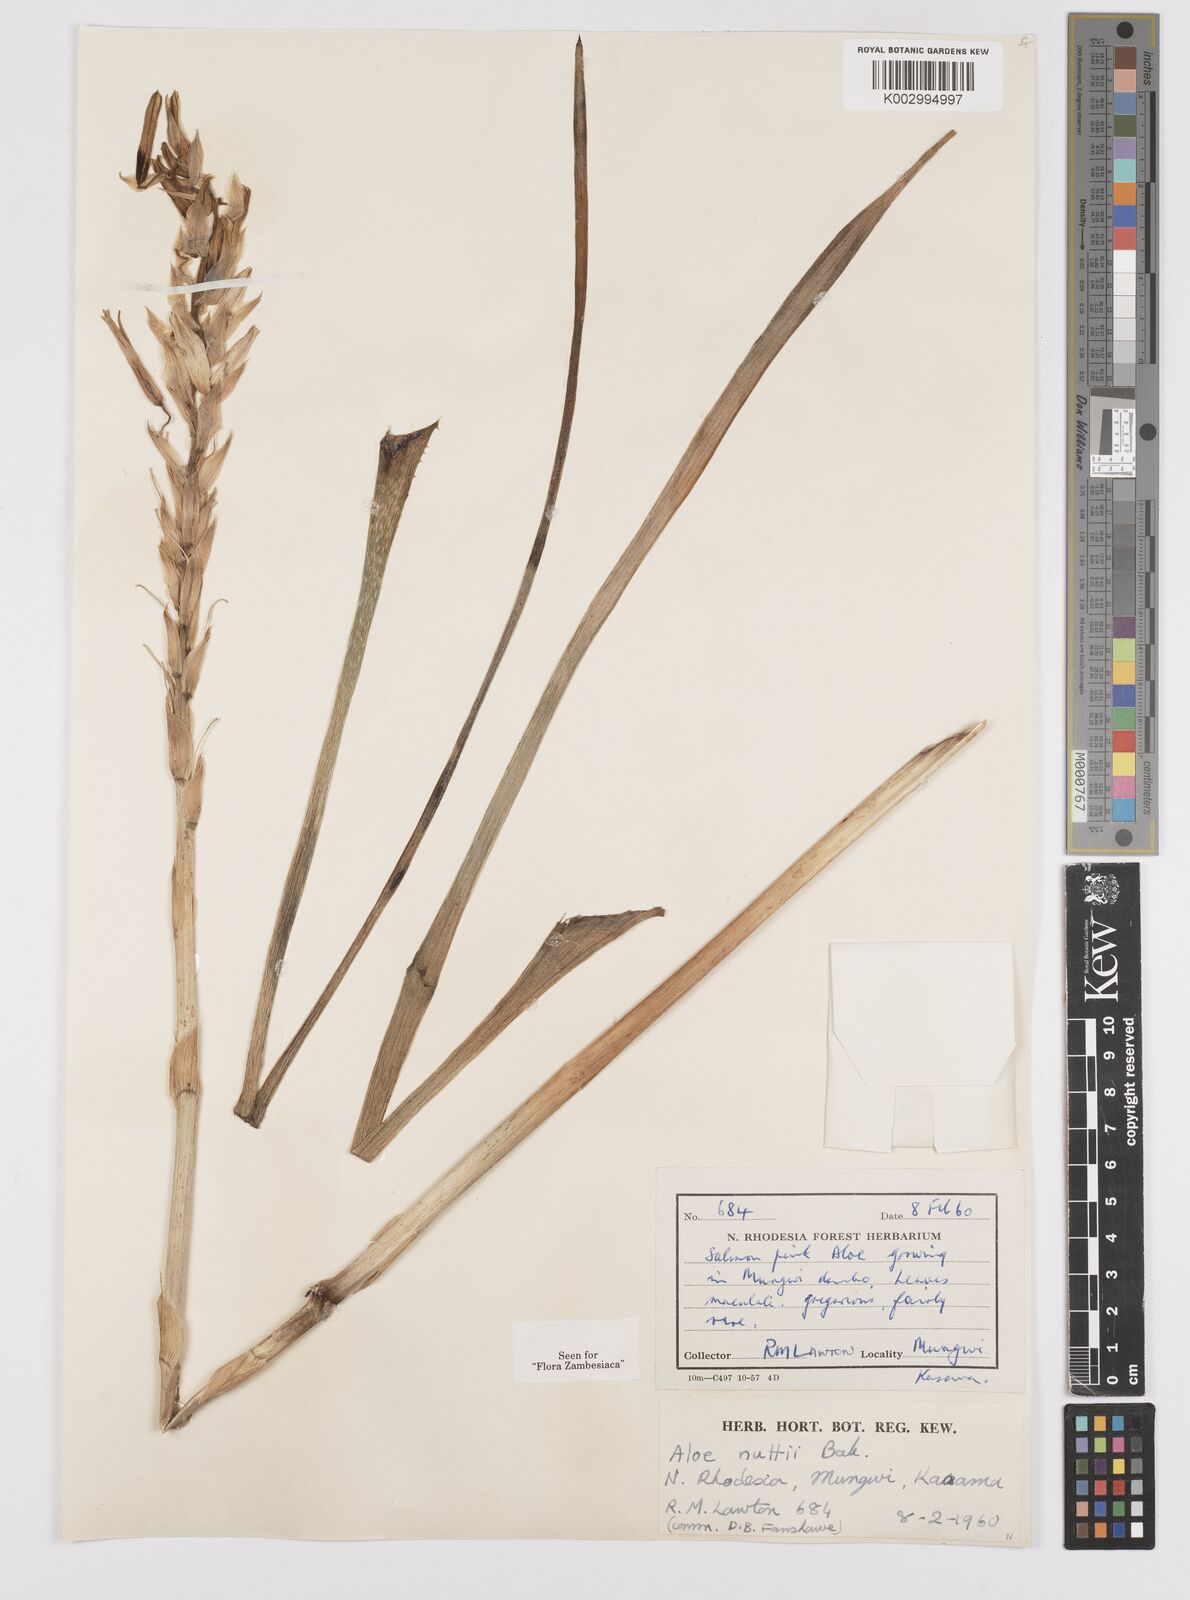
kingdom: Plantae
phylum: Tracheophyta
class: Liliopsida
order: Asparagales
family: Asphodelaceae
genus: Aloe
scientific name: Aloe nuttii
